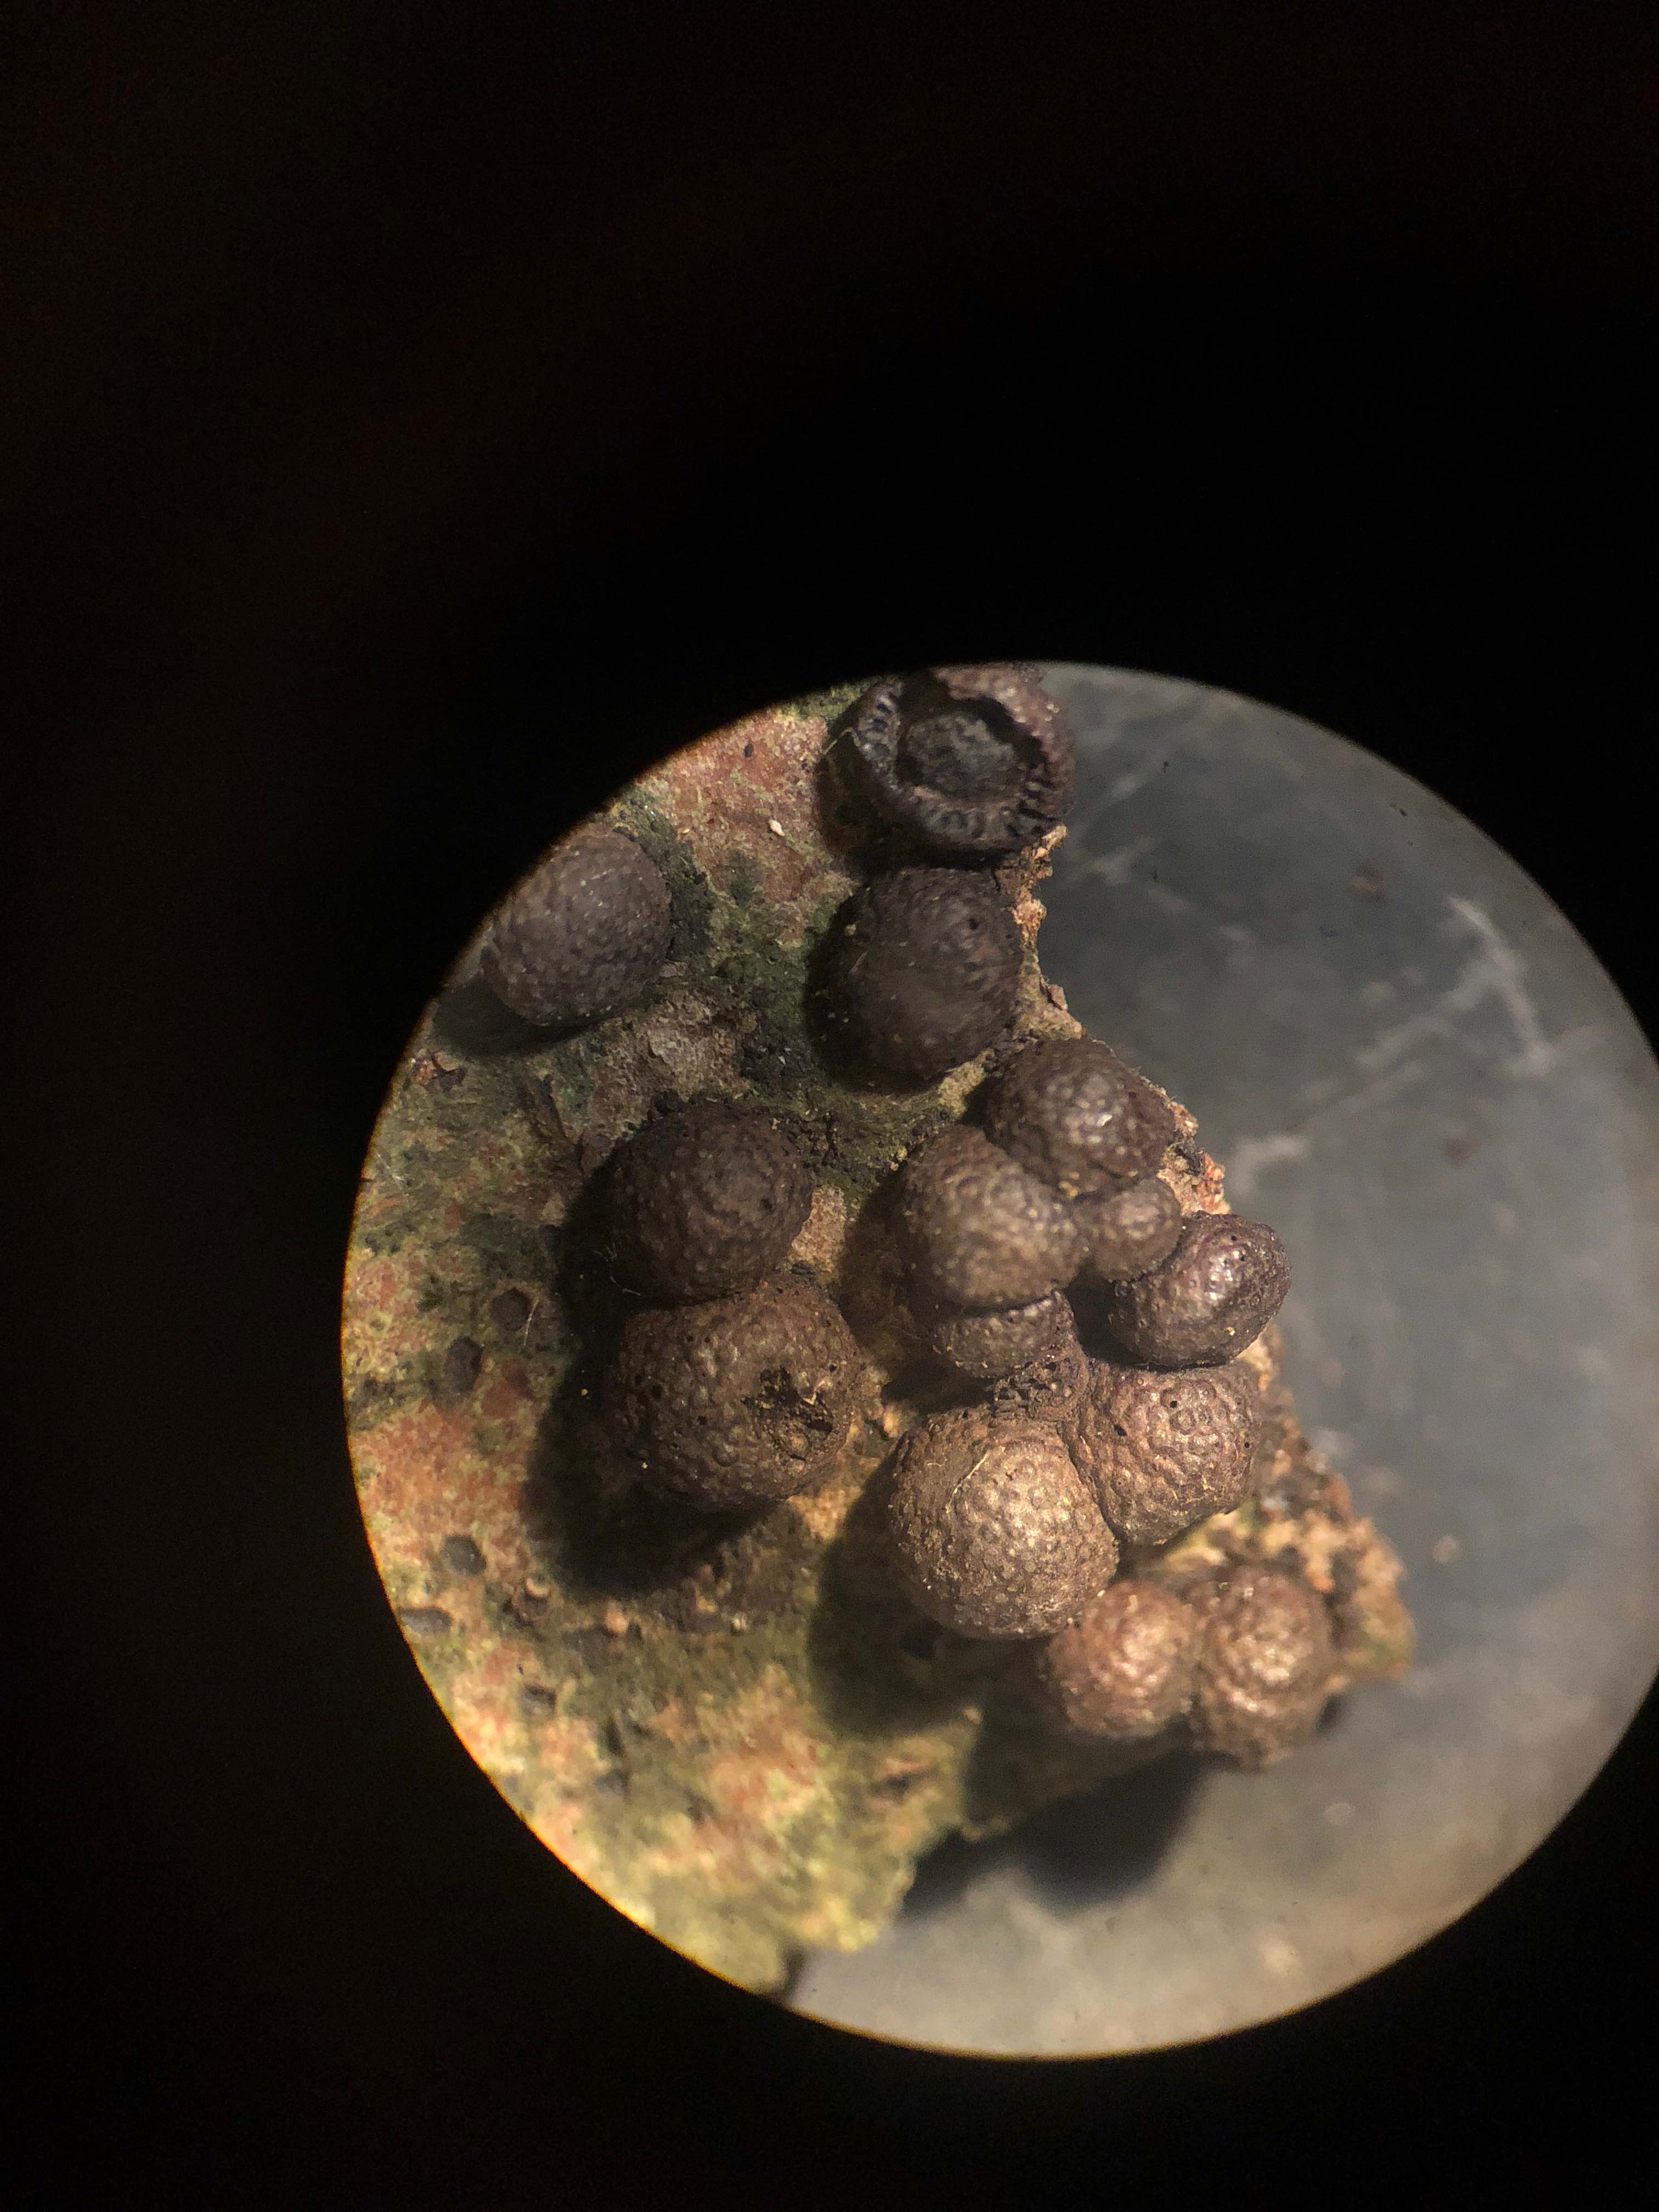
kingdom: Fungi
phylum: Ascomycota
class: Sordariomycetes
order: Xylariales
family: Hypoxylaceae
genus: Hypoxylon
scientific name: Hypoxylon fragiforme
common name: kuljordbær
